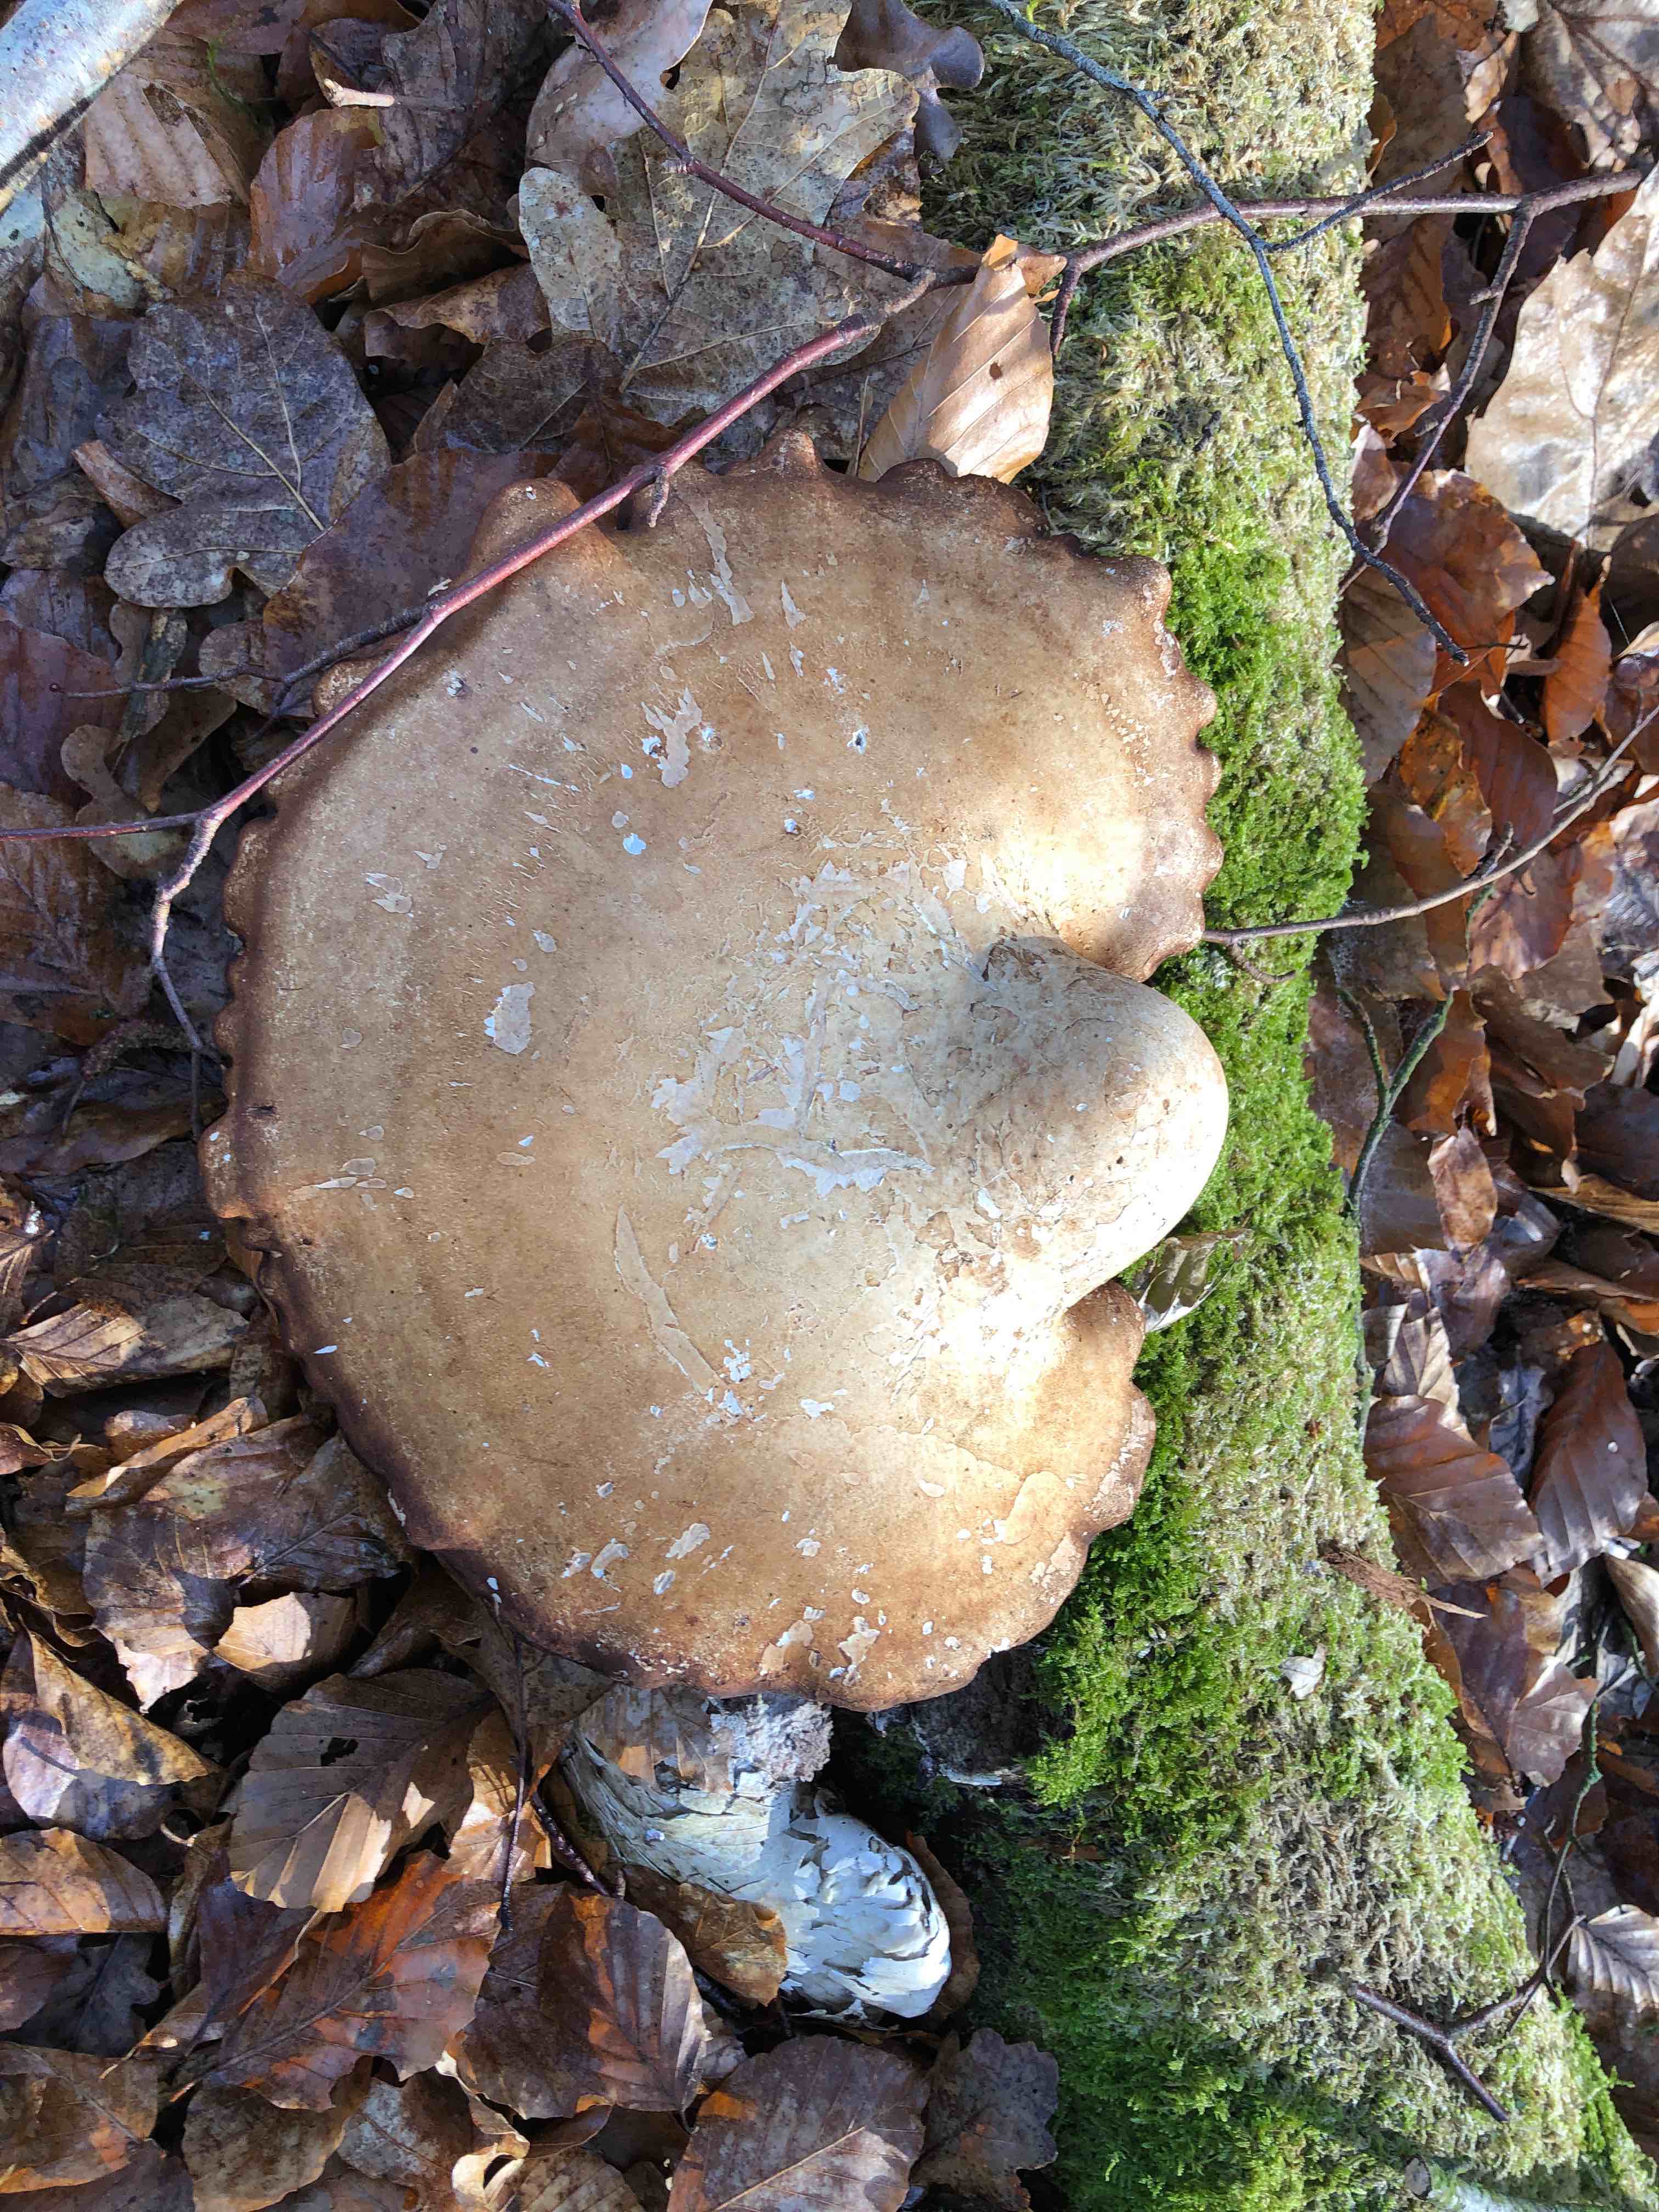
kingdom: Fungi
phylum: Basidiomycota
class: Agaricomycetes
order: Polyporales
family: Fomitopsidaceae
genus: Fomitopsis
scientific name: Fomitopsis betulina
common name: birkeporesvamp
